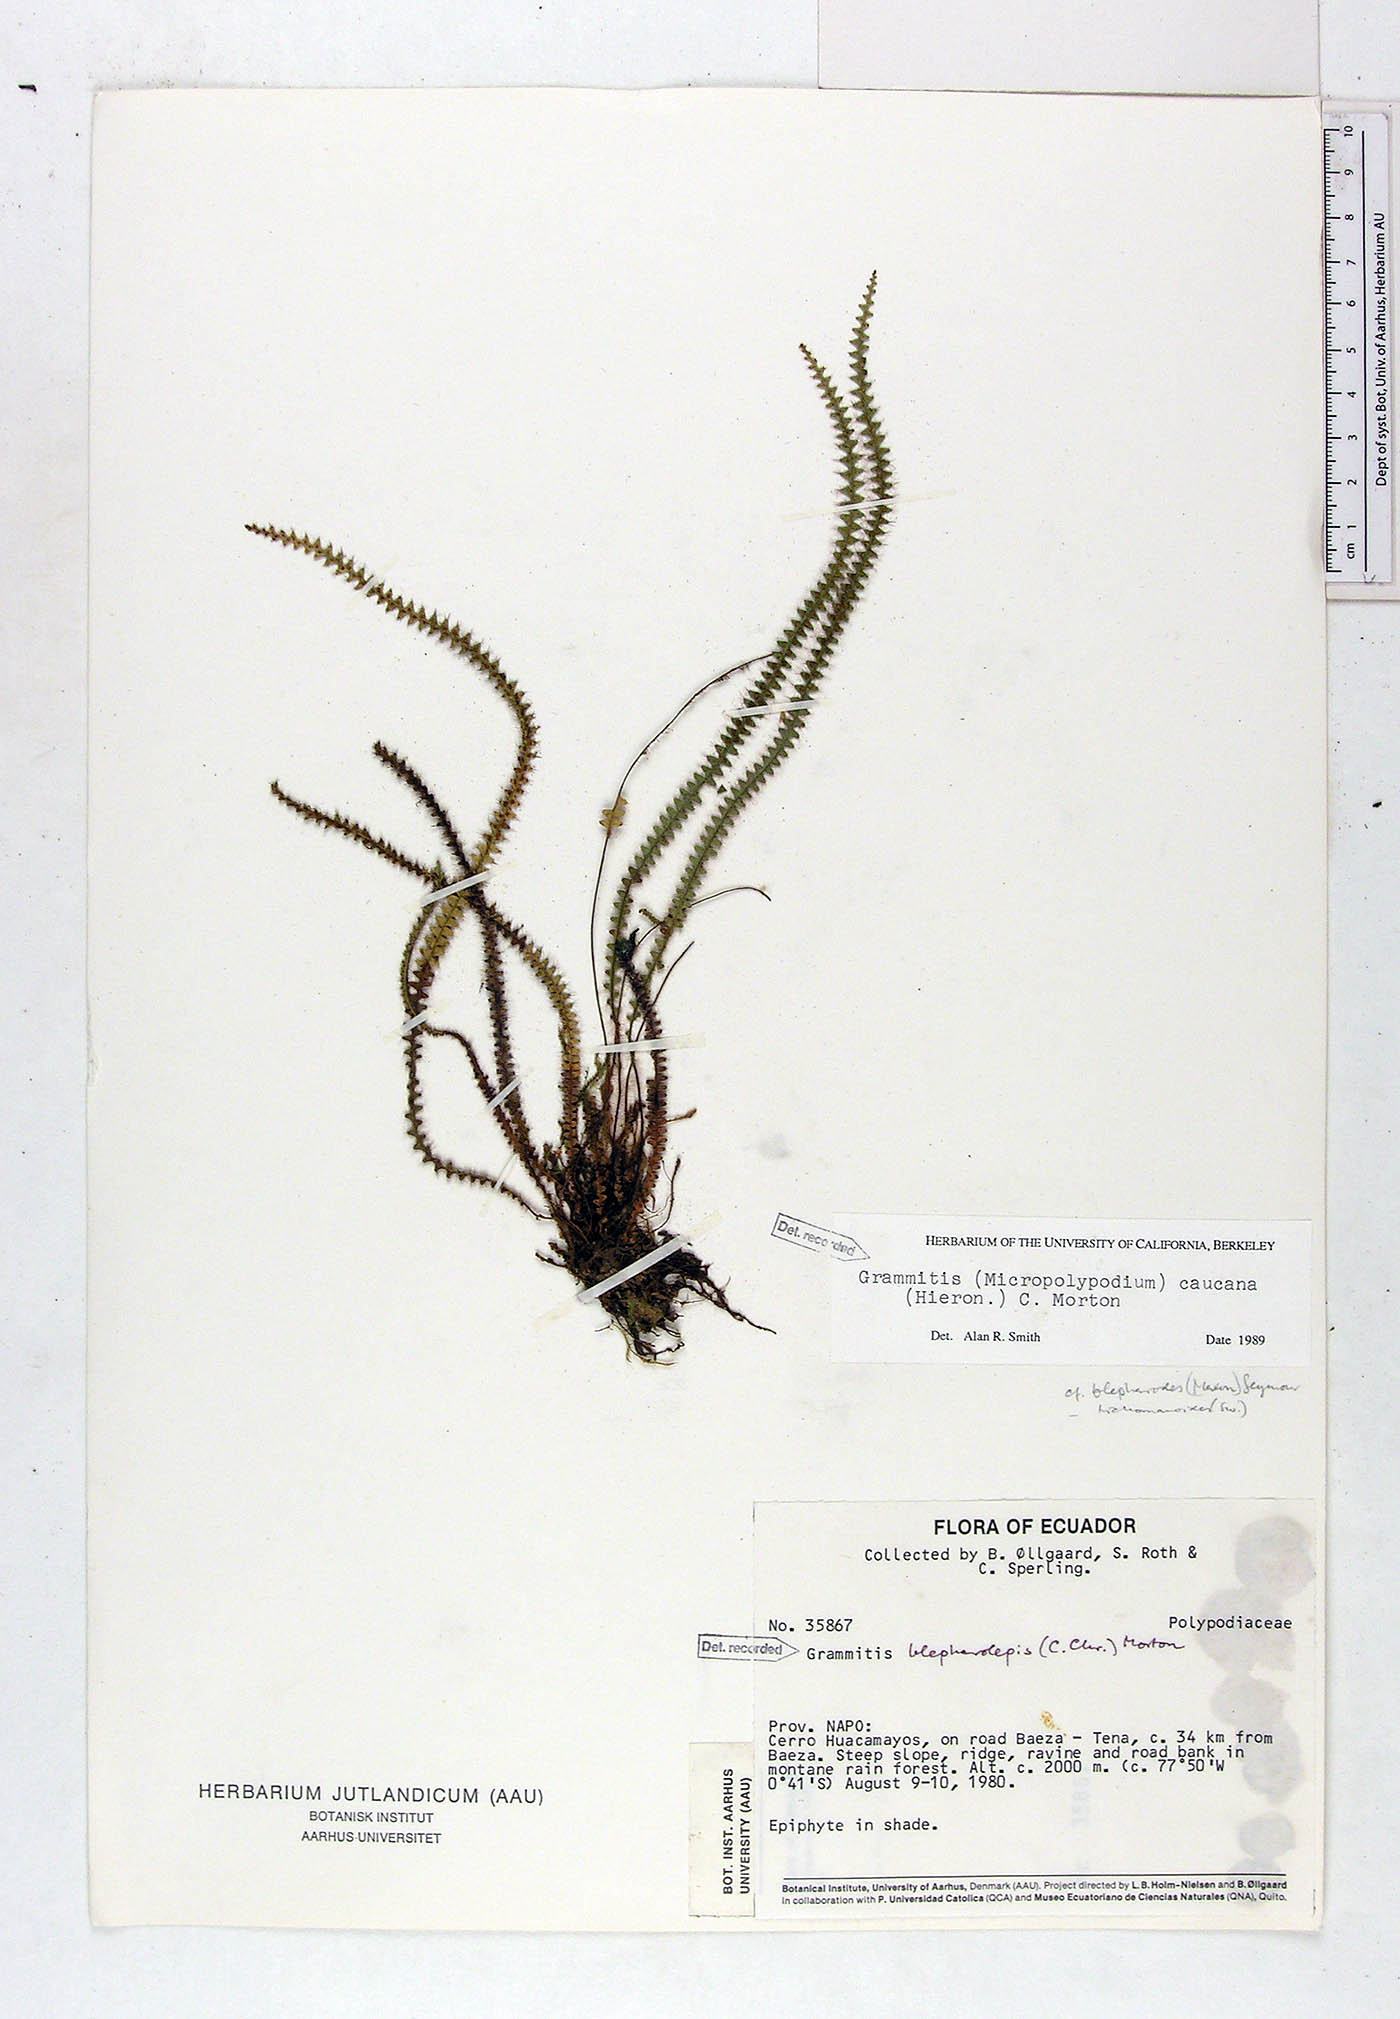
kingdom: Plantae
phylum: Tracheophyta
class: Polypodiopsida
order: Polypodiales
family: Polypodiaceae
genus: Moranopteris
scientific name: Moranopteris caucana
